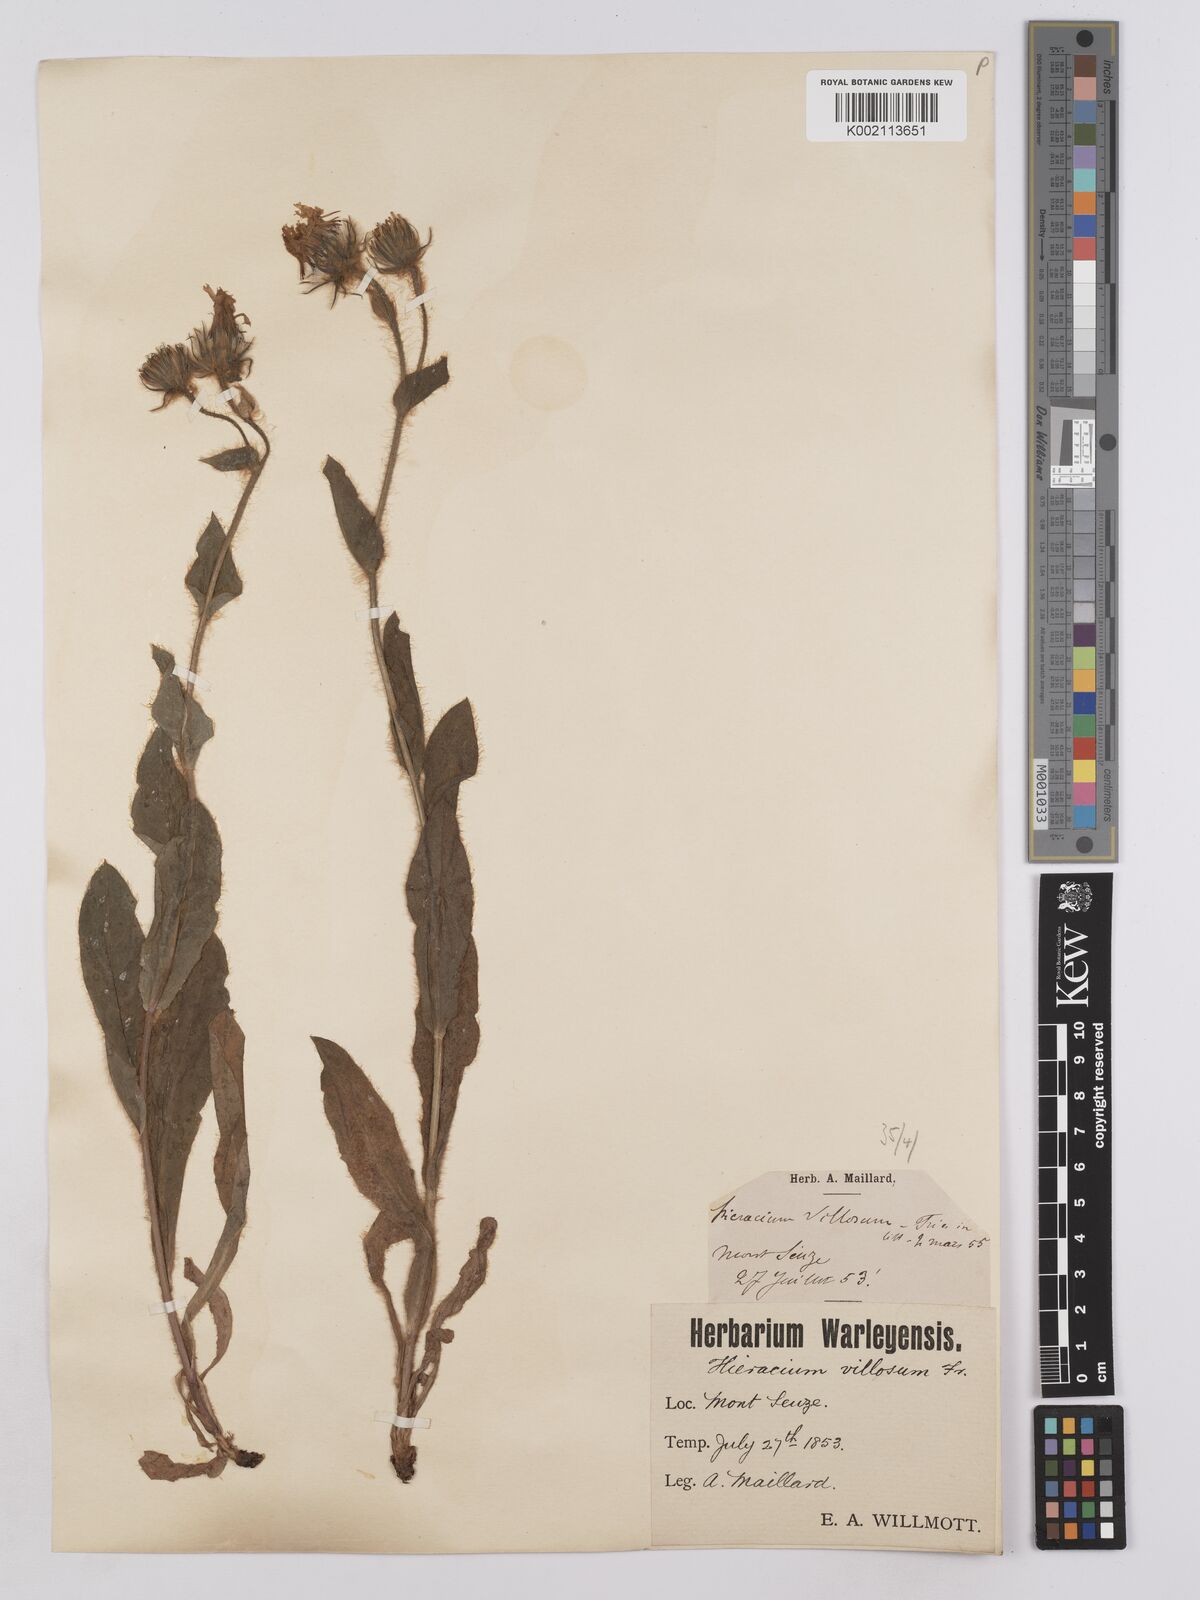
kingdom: Plantae
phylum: Tracheophyta
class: Magnoliopsida
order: Asterales
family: Asteraceae
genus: Hieracium
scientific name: Hieracium villosum
